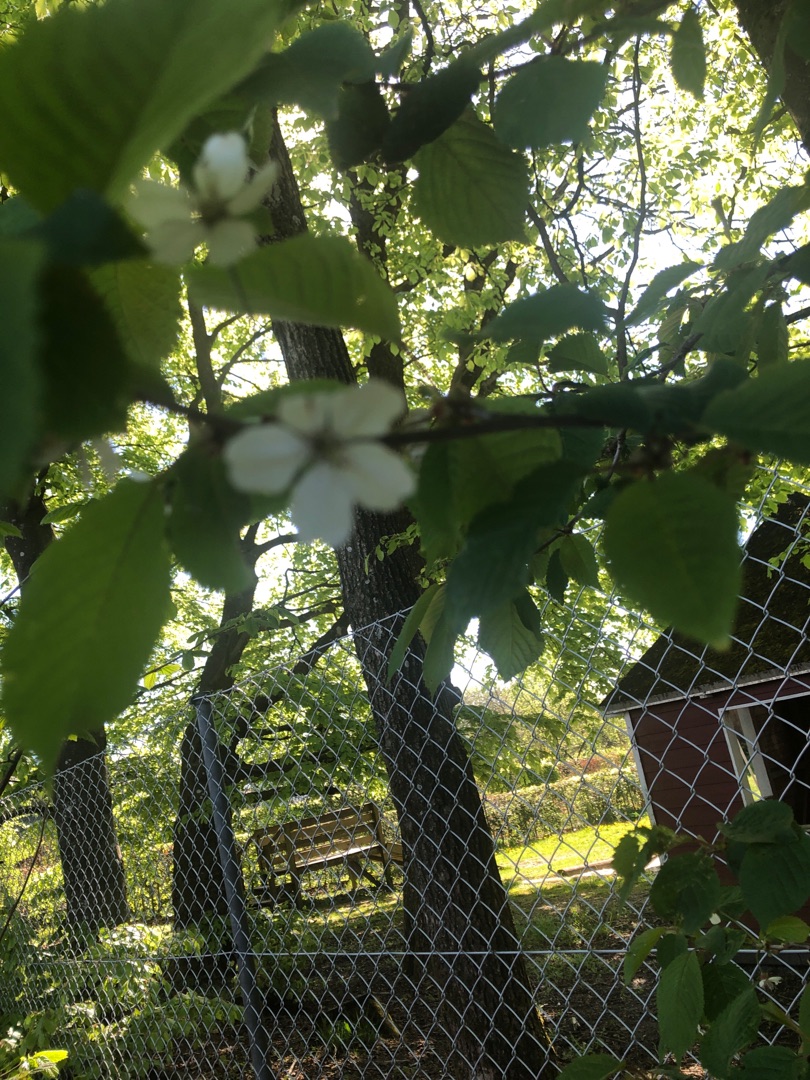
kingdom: Plantae
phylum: Tracheophyta
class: Magnoliopsida
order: Rosales
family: Rosaceae
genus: Prunus
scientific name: Prunus avium
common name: Fugle-kirsebær
